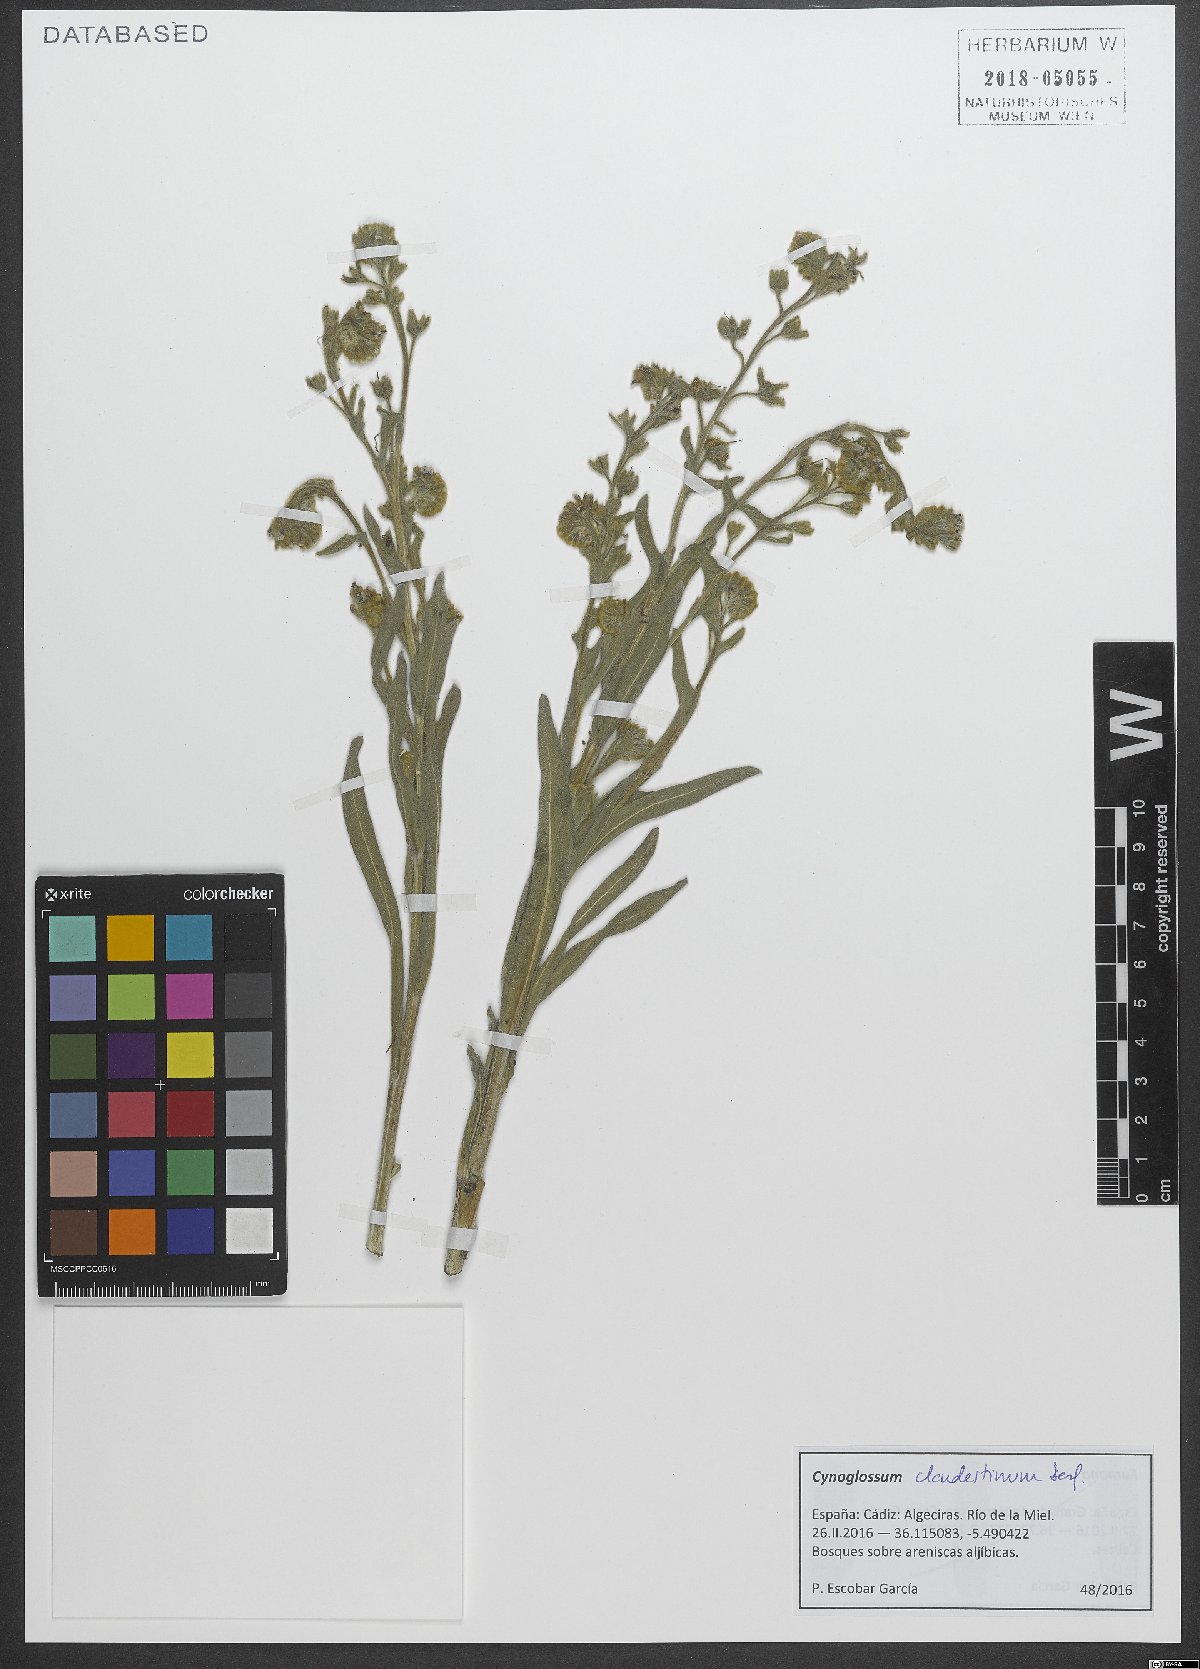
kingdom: Plantae
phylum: Tracheophyta
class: Magnoliopsida
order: Boraginales
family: Boraginaceae
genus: Cynoglossum
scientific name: Cynoglossum clandestinum
